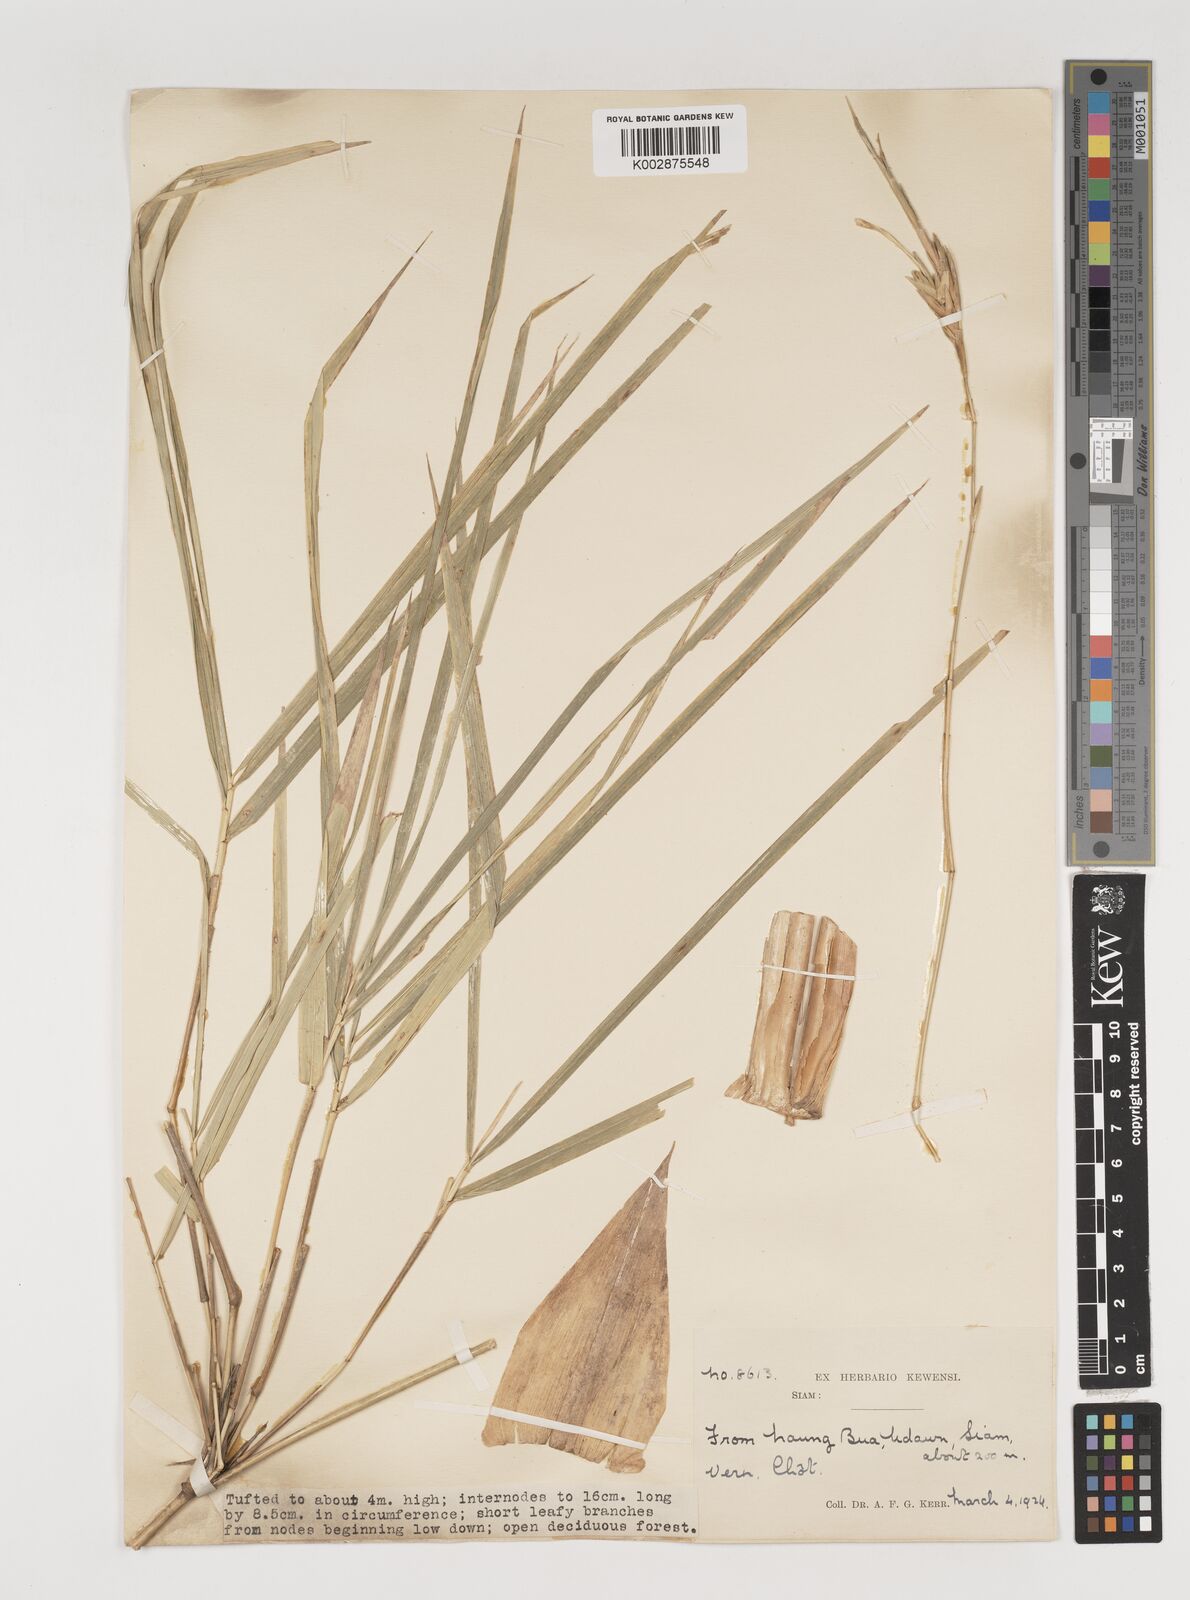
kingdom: Plantae
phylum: Tracheophyta
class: Liliopsida
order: Poales
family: Poaceae
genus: Vietnamosasa
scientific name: Vietnamosasa pusilla
